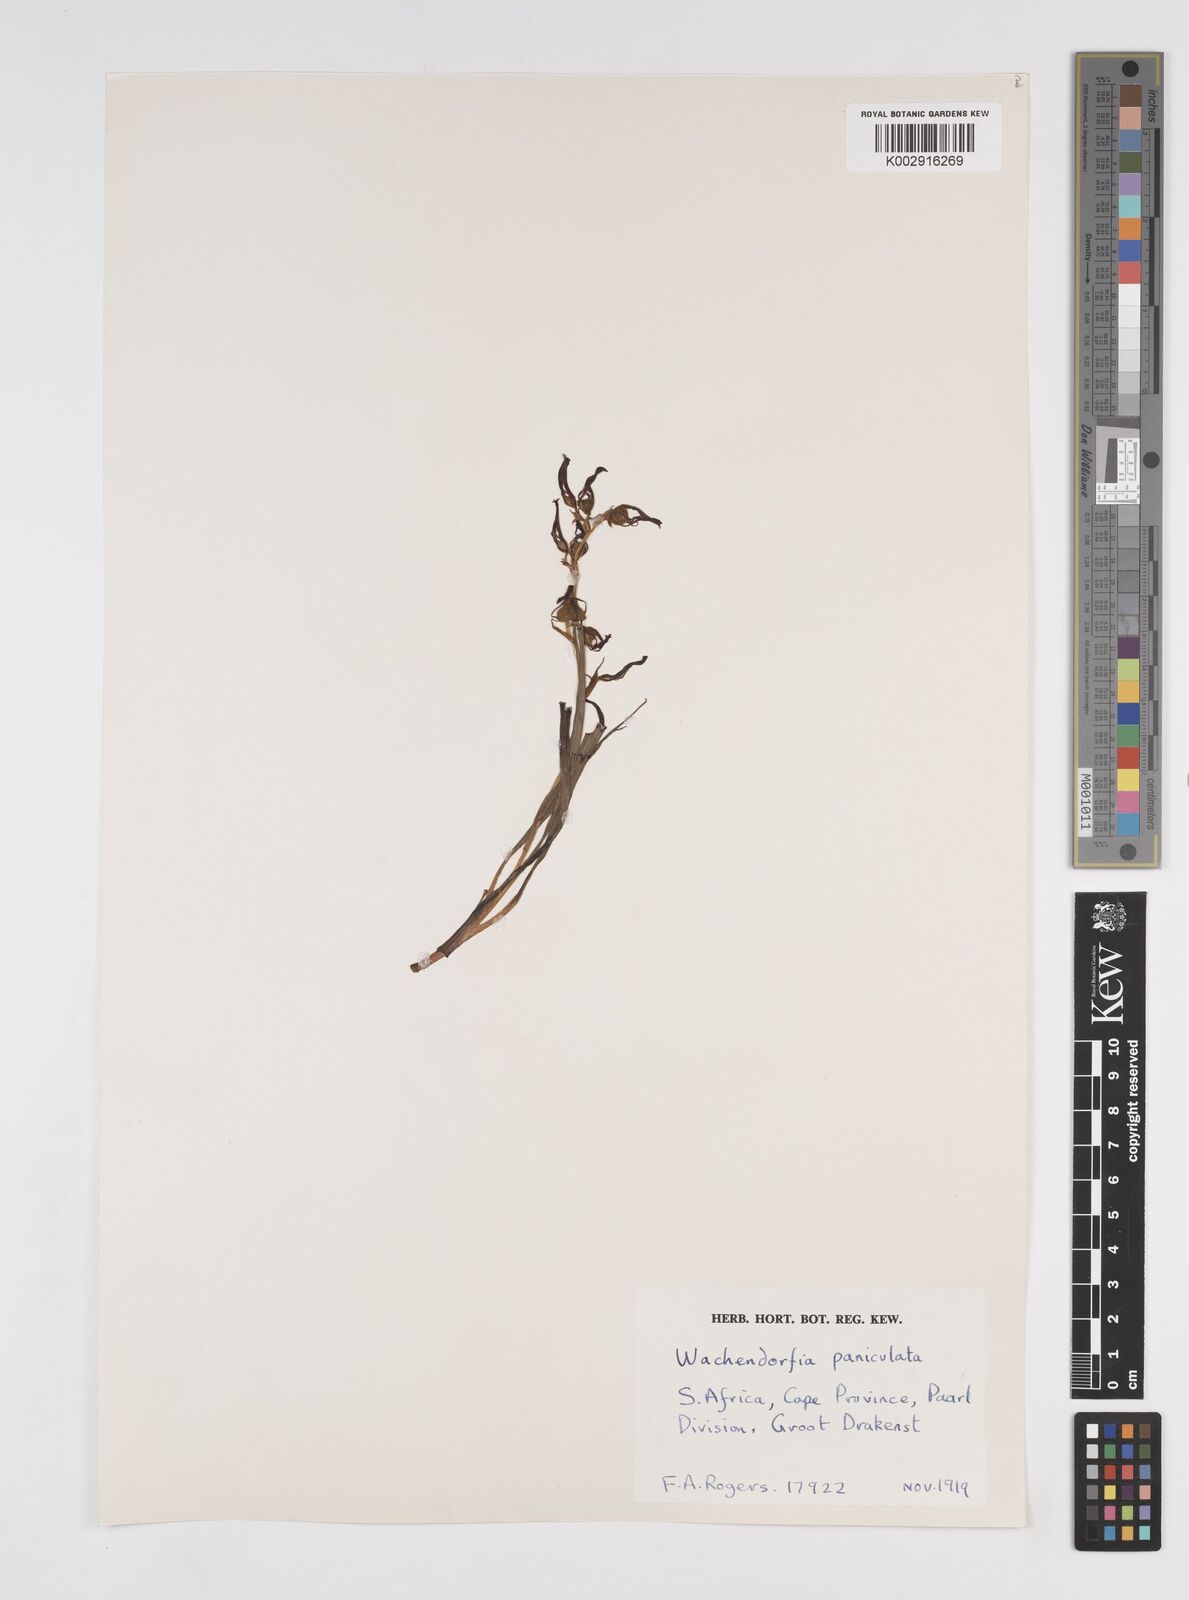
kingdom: Plantae
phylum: Tracheophyta
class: Liliopsida
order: Commelinales
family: Haemodoraceae
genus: Wachendorfia
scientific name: Wachendorfia paniculata
